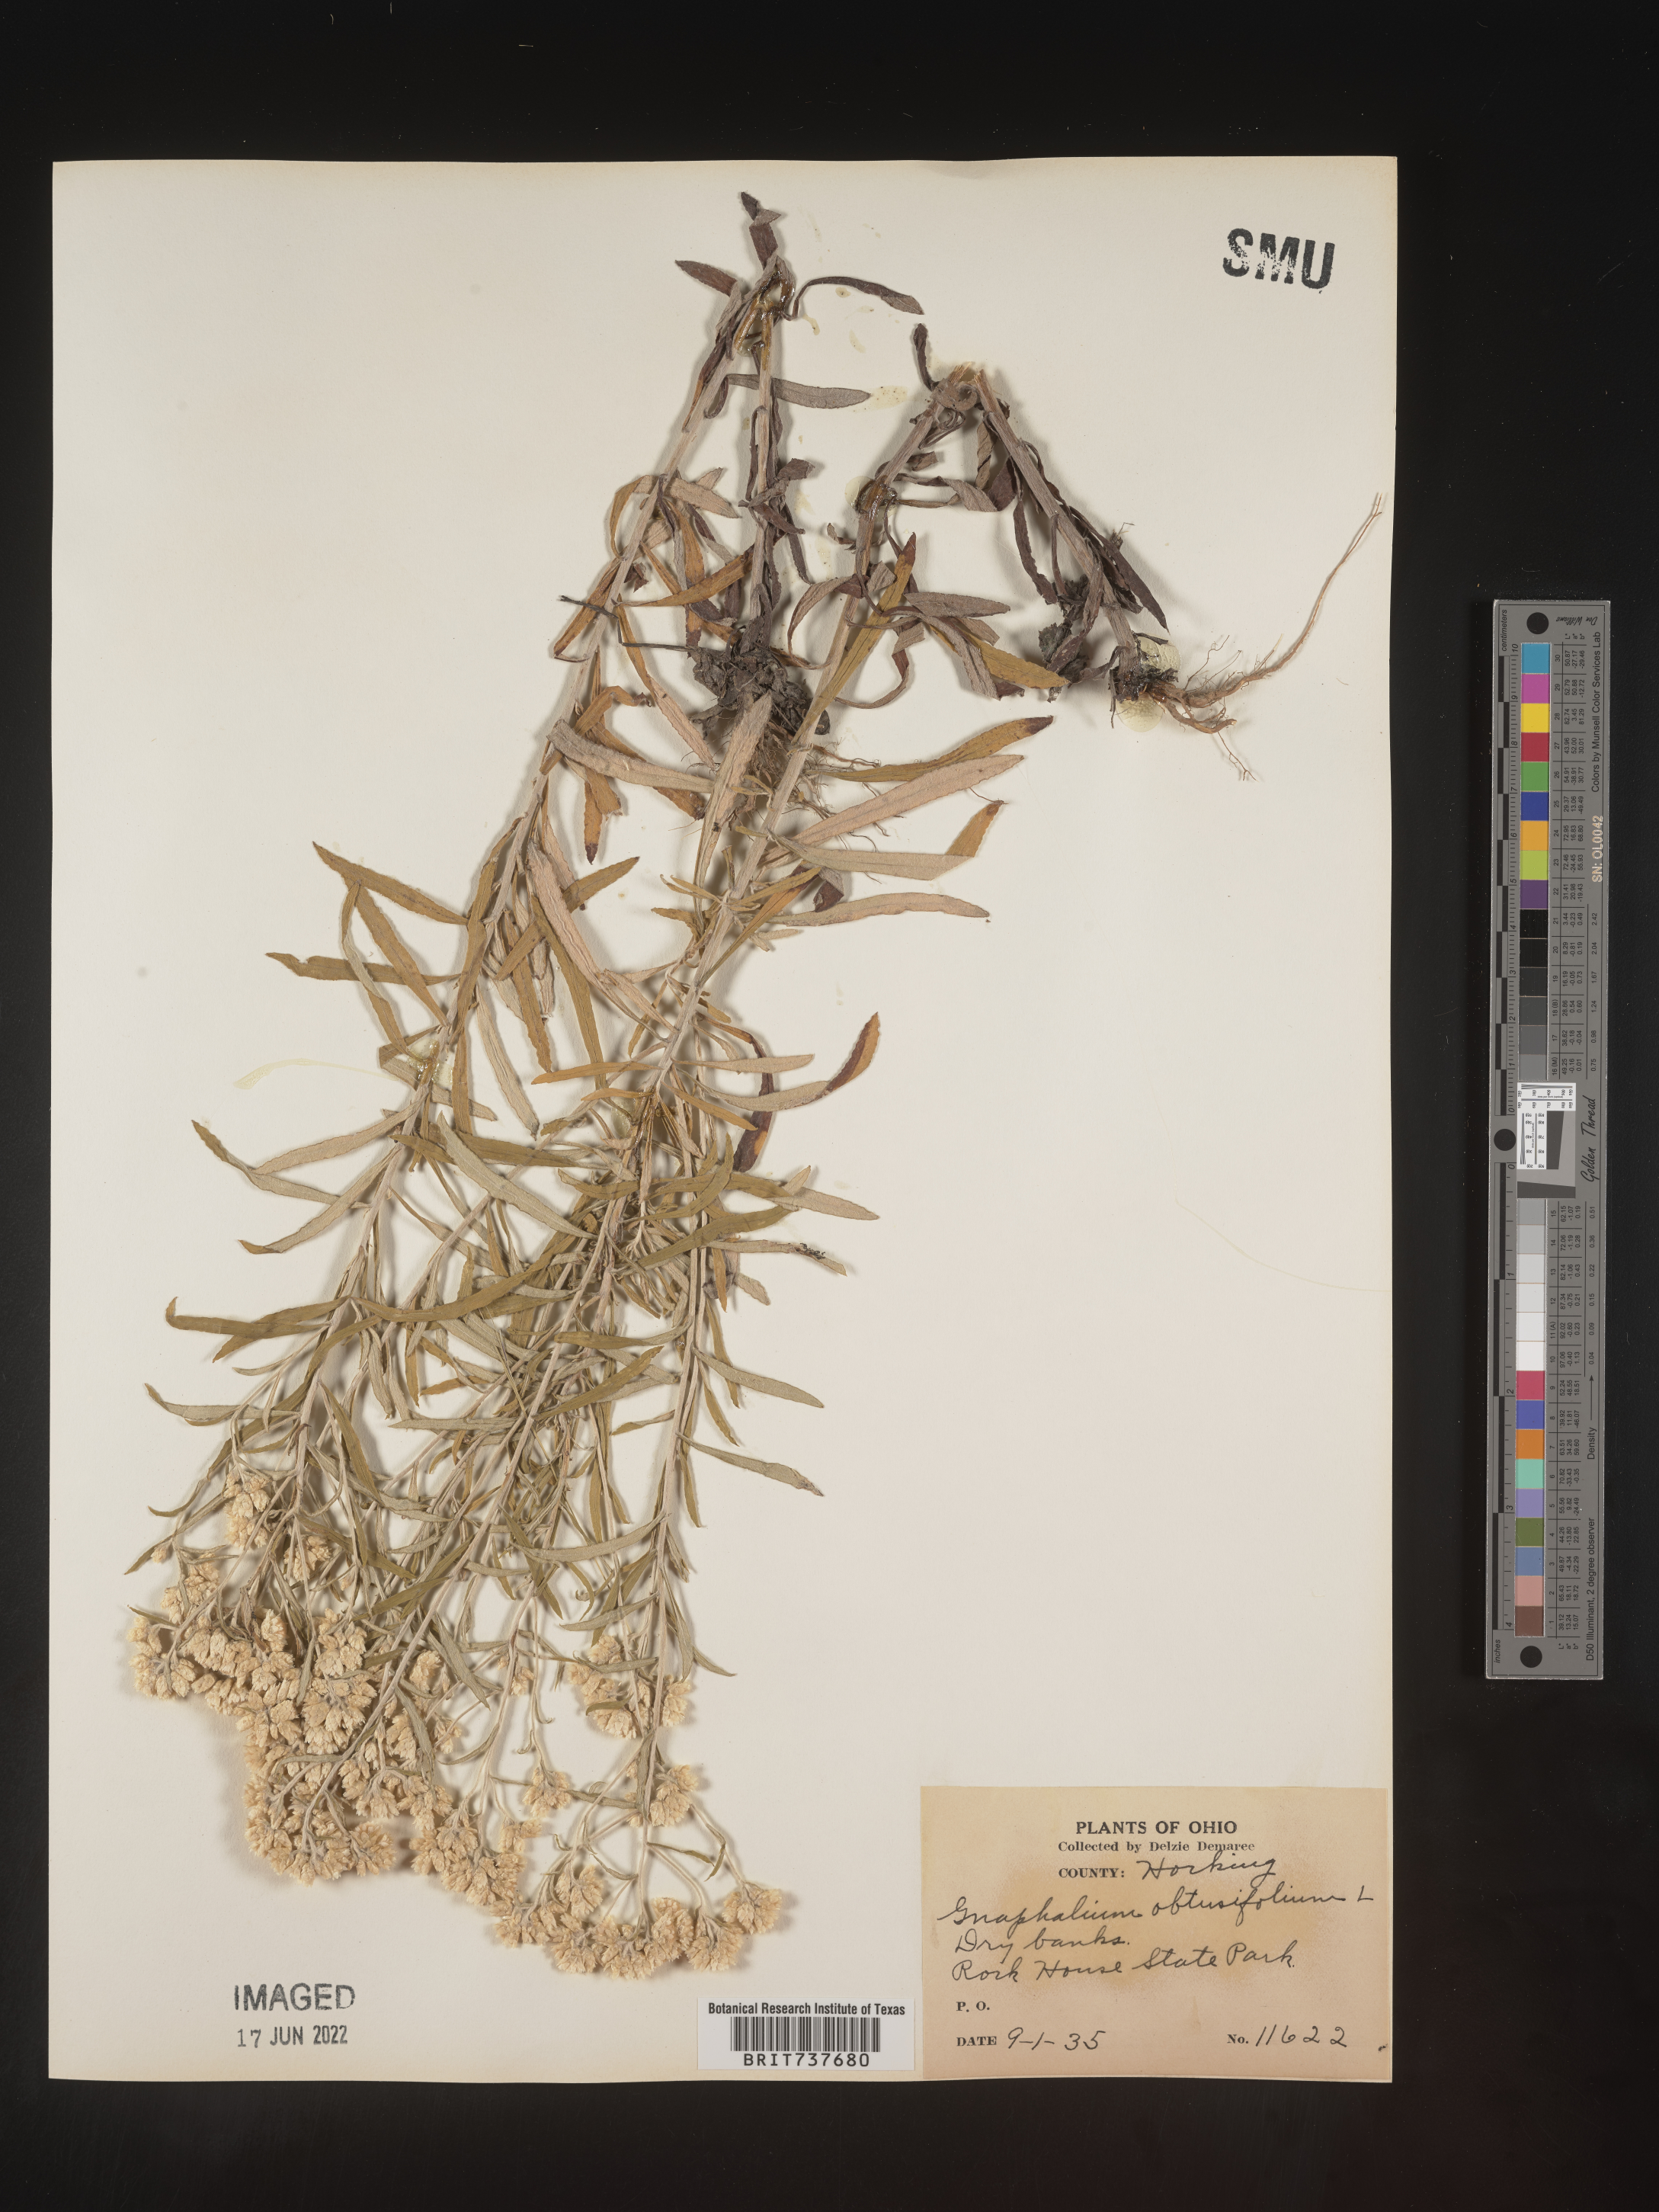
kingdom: Plantae
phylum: Tracheophyta
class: Magnoliopsida
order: Asterales
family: Asteraceae
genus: Pseudognaphalium
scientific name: Pseudognaphalium obtusifolium
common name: Eastern rabbit-tobacco
